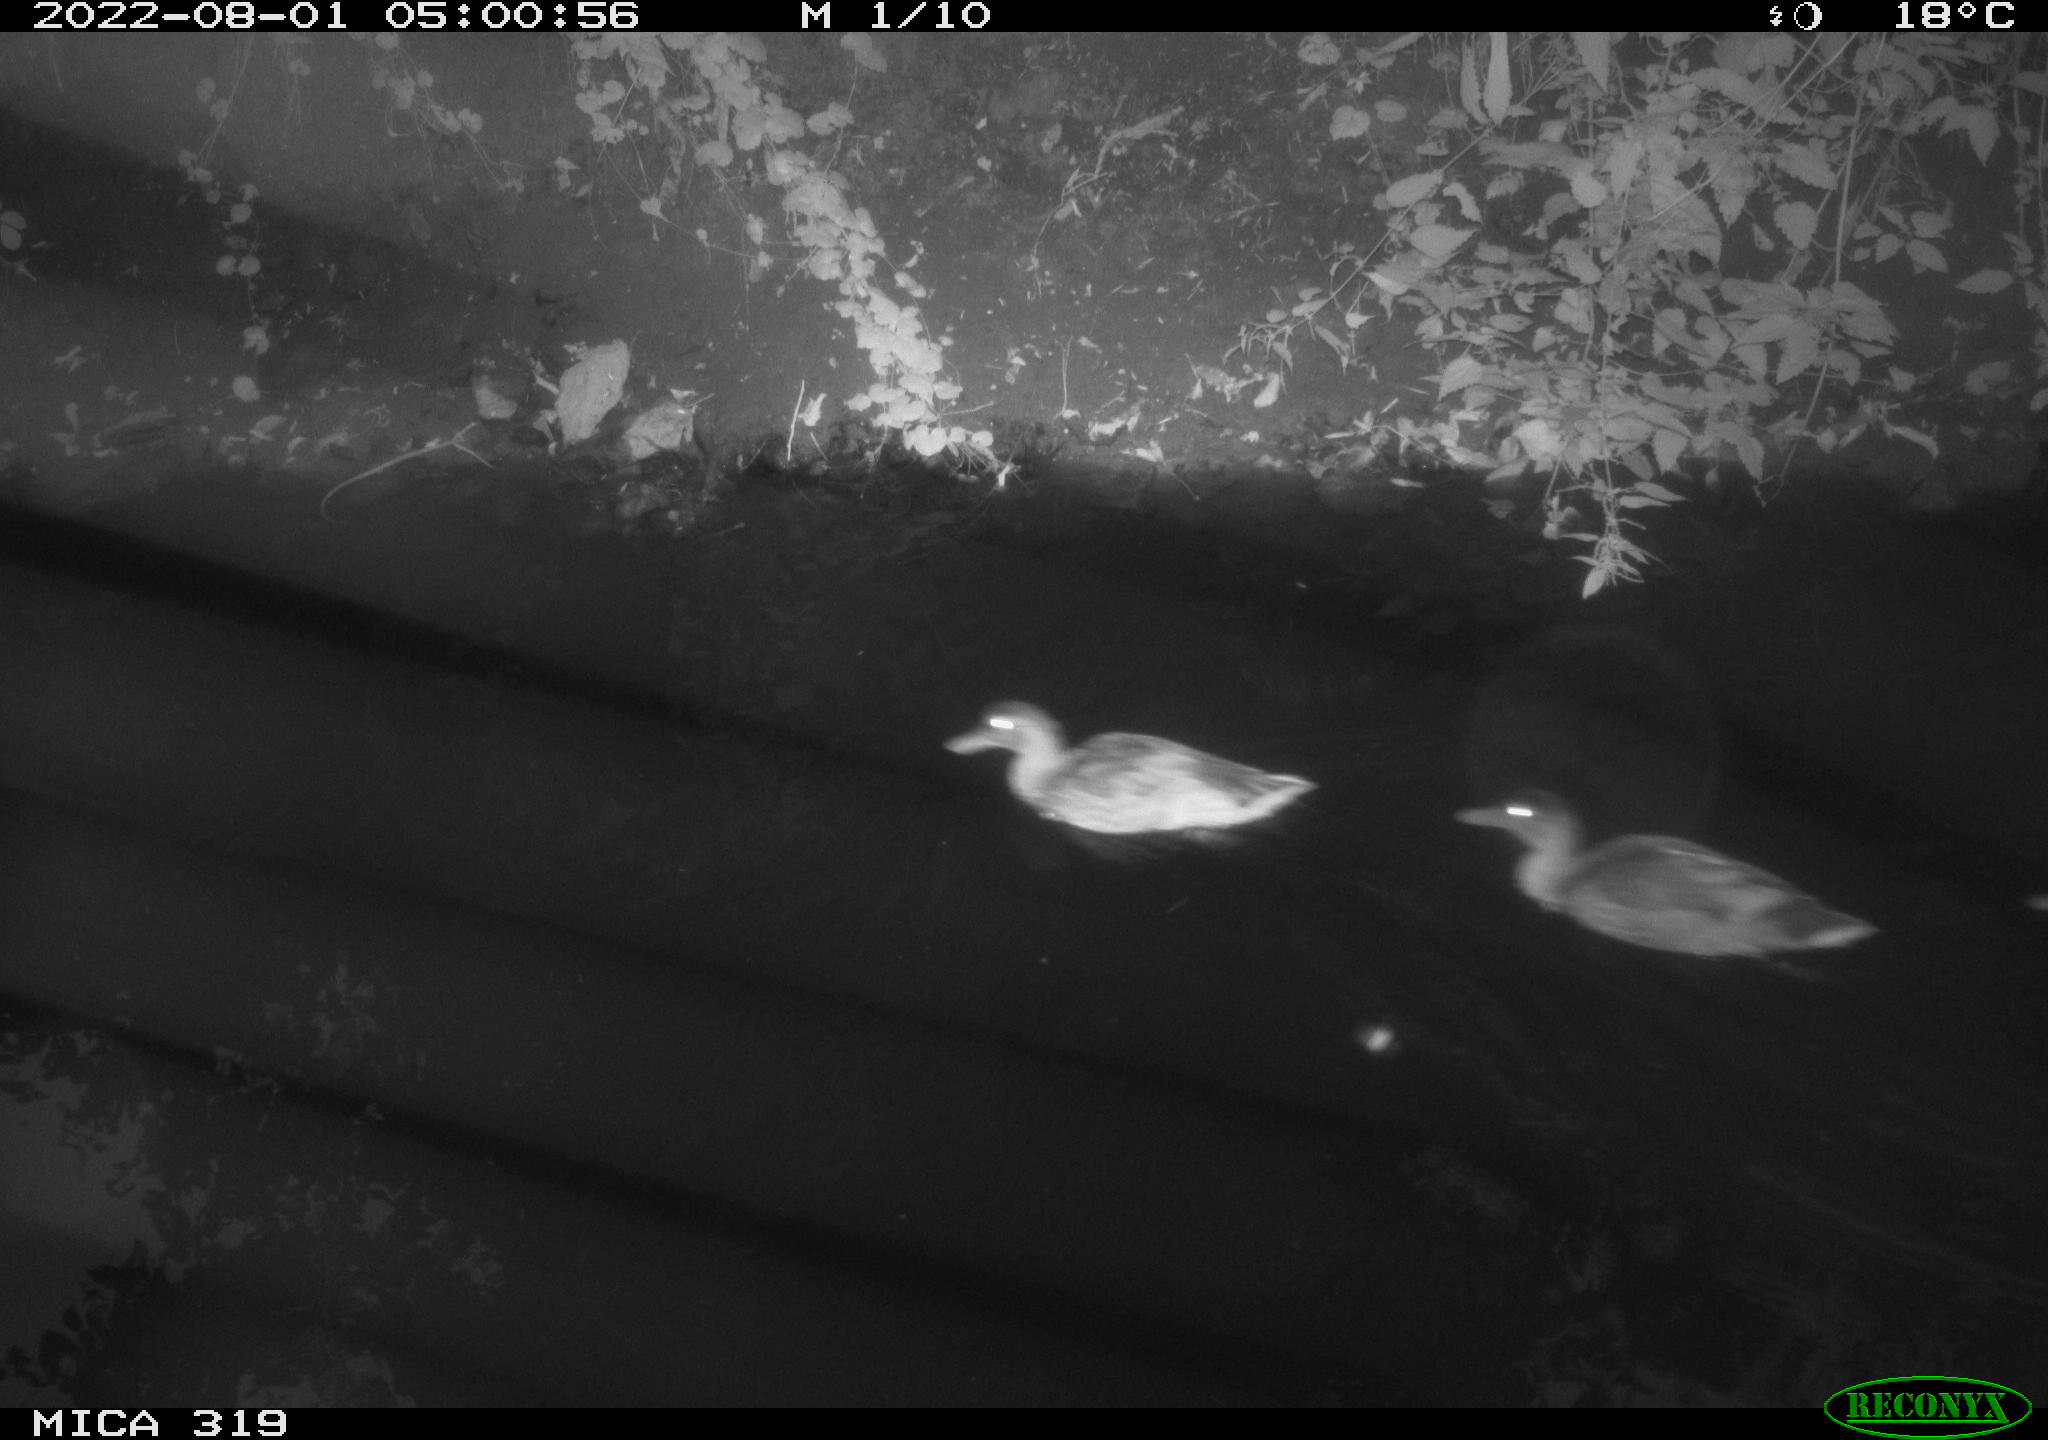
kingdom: Animalia
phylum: Chordata
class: Aves
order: Anseriformes
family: Anatidae
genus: Anas
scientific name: Anas
